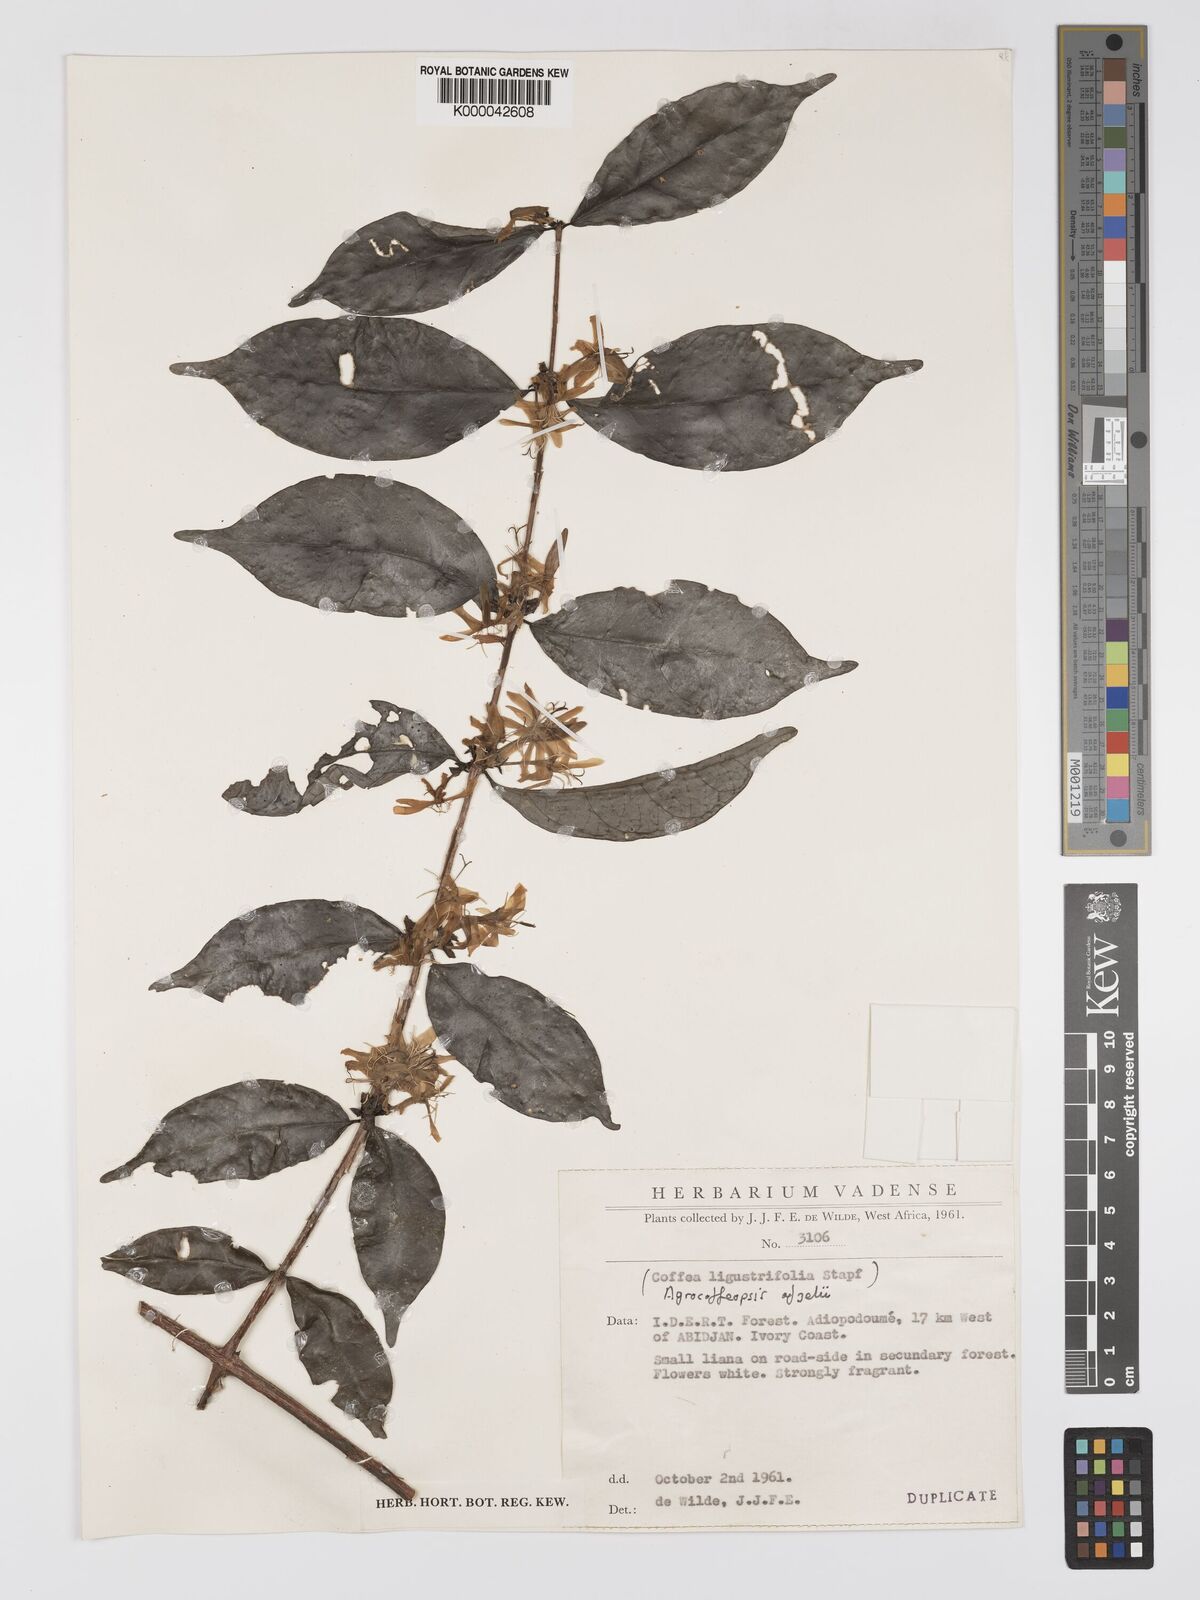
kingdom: Plantae
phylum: Tracheophyta
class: Magnoliopsida
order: Gentianales
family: Rubiaceae
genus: Argocoffeopsis
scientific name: Argocoffeopsis afzelii
